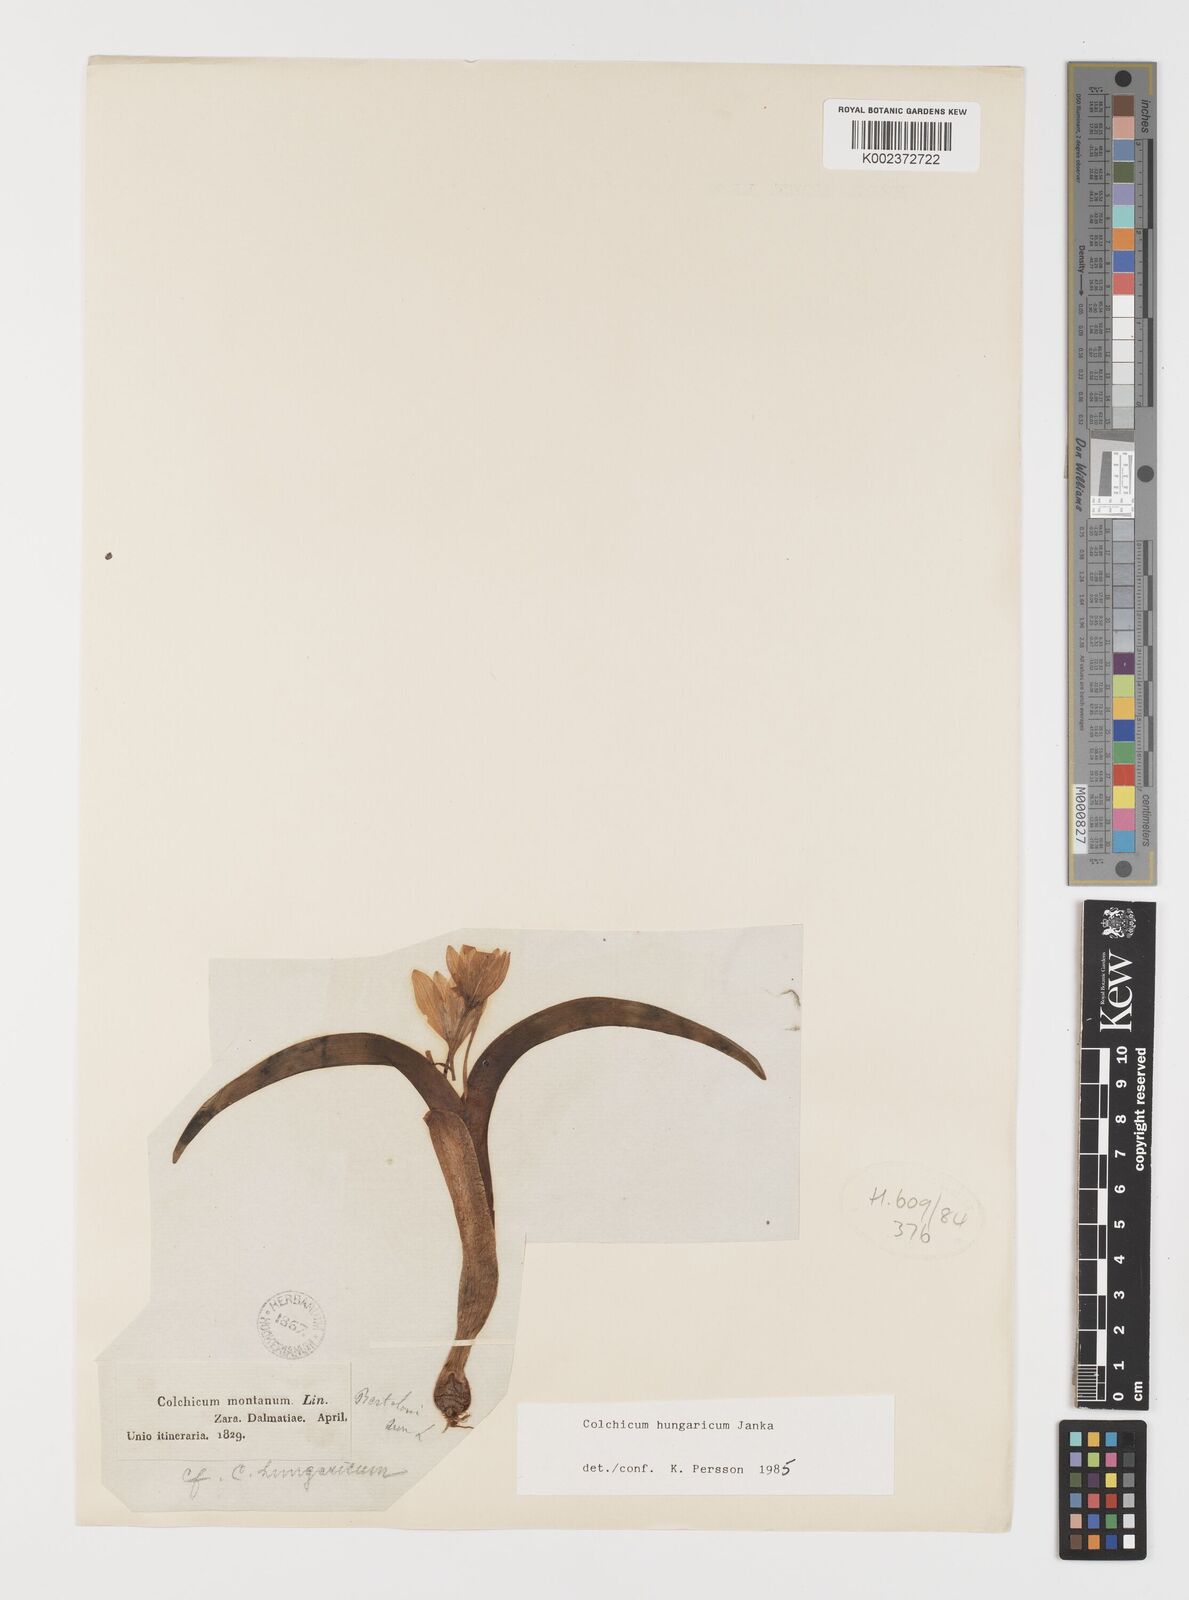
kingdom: Plantae
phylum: Tracheophyta
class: Liliopsida
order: Liliales
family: Colchicaceae
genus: Colchicum
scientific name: Colchicum hungaricum
